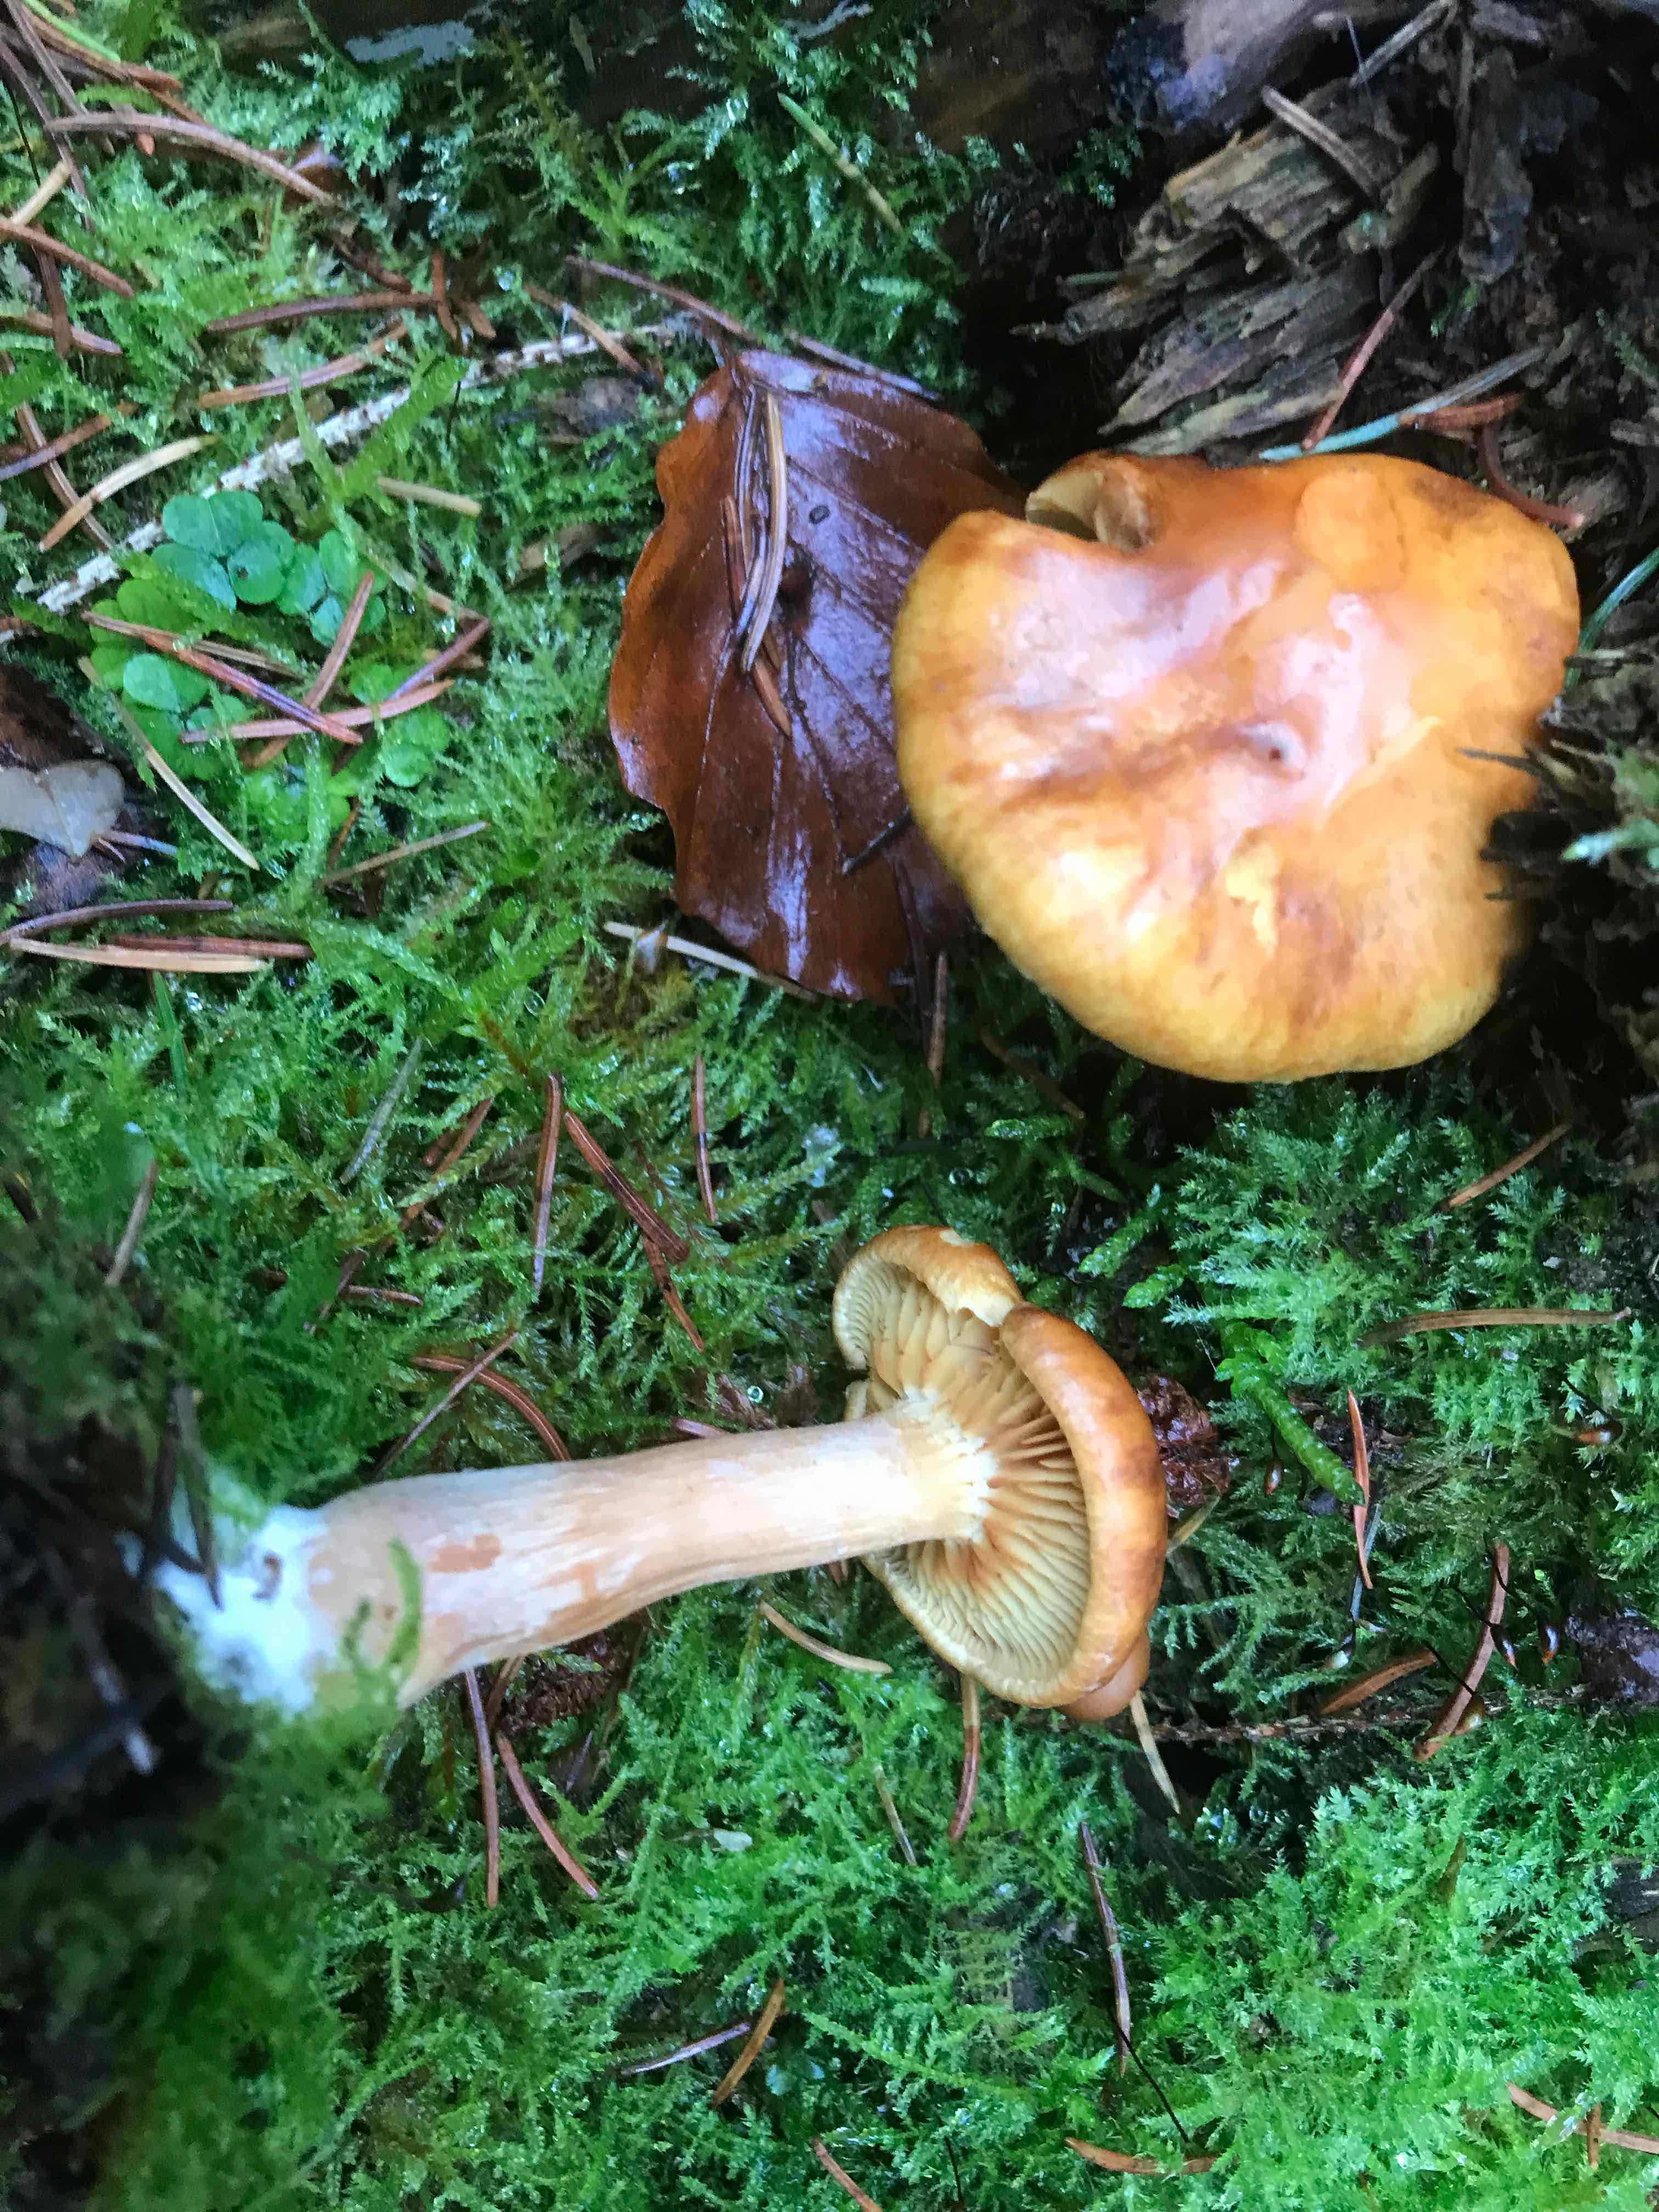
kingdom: Fungi
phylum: Basidiomycota
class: Agaricomycetes
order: Agaricales
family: Hymenogastraceae
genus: Gymnopilus
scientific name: Gymnopilus penetrans
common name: plettet flammehat
